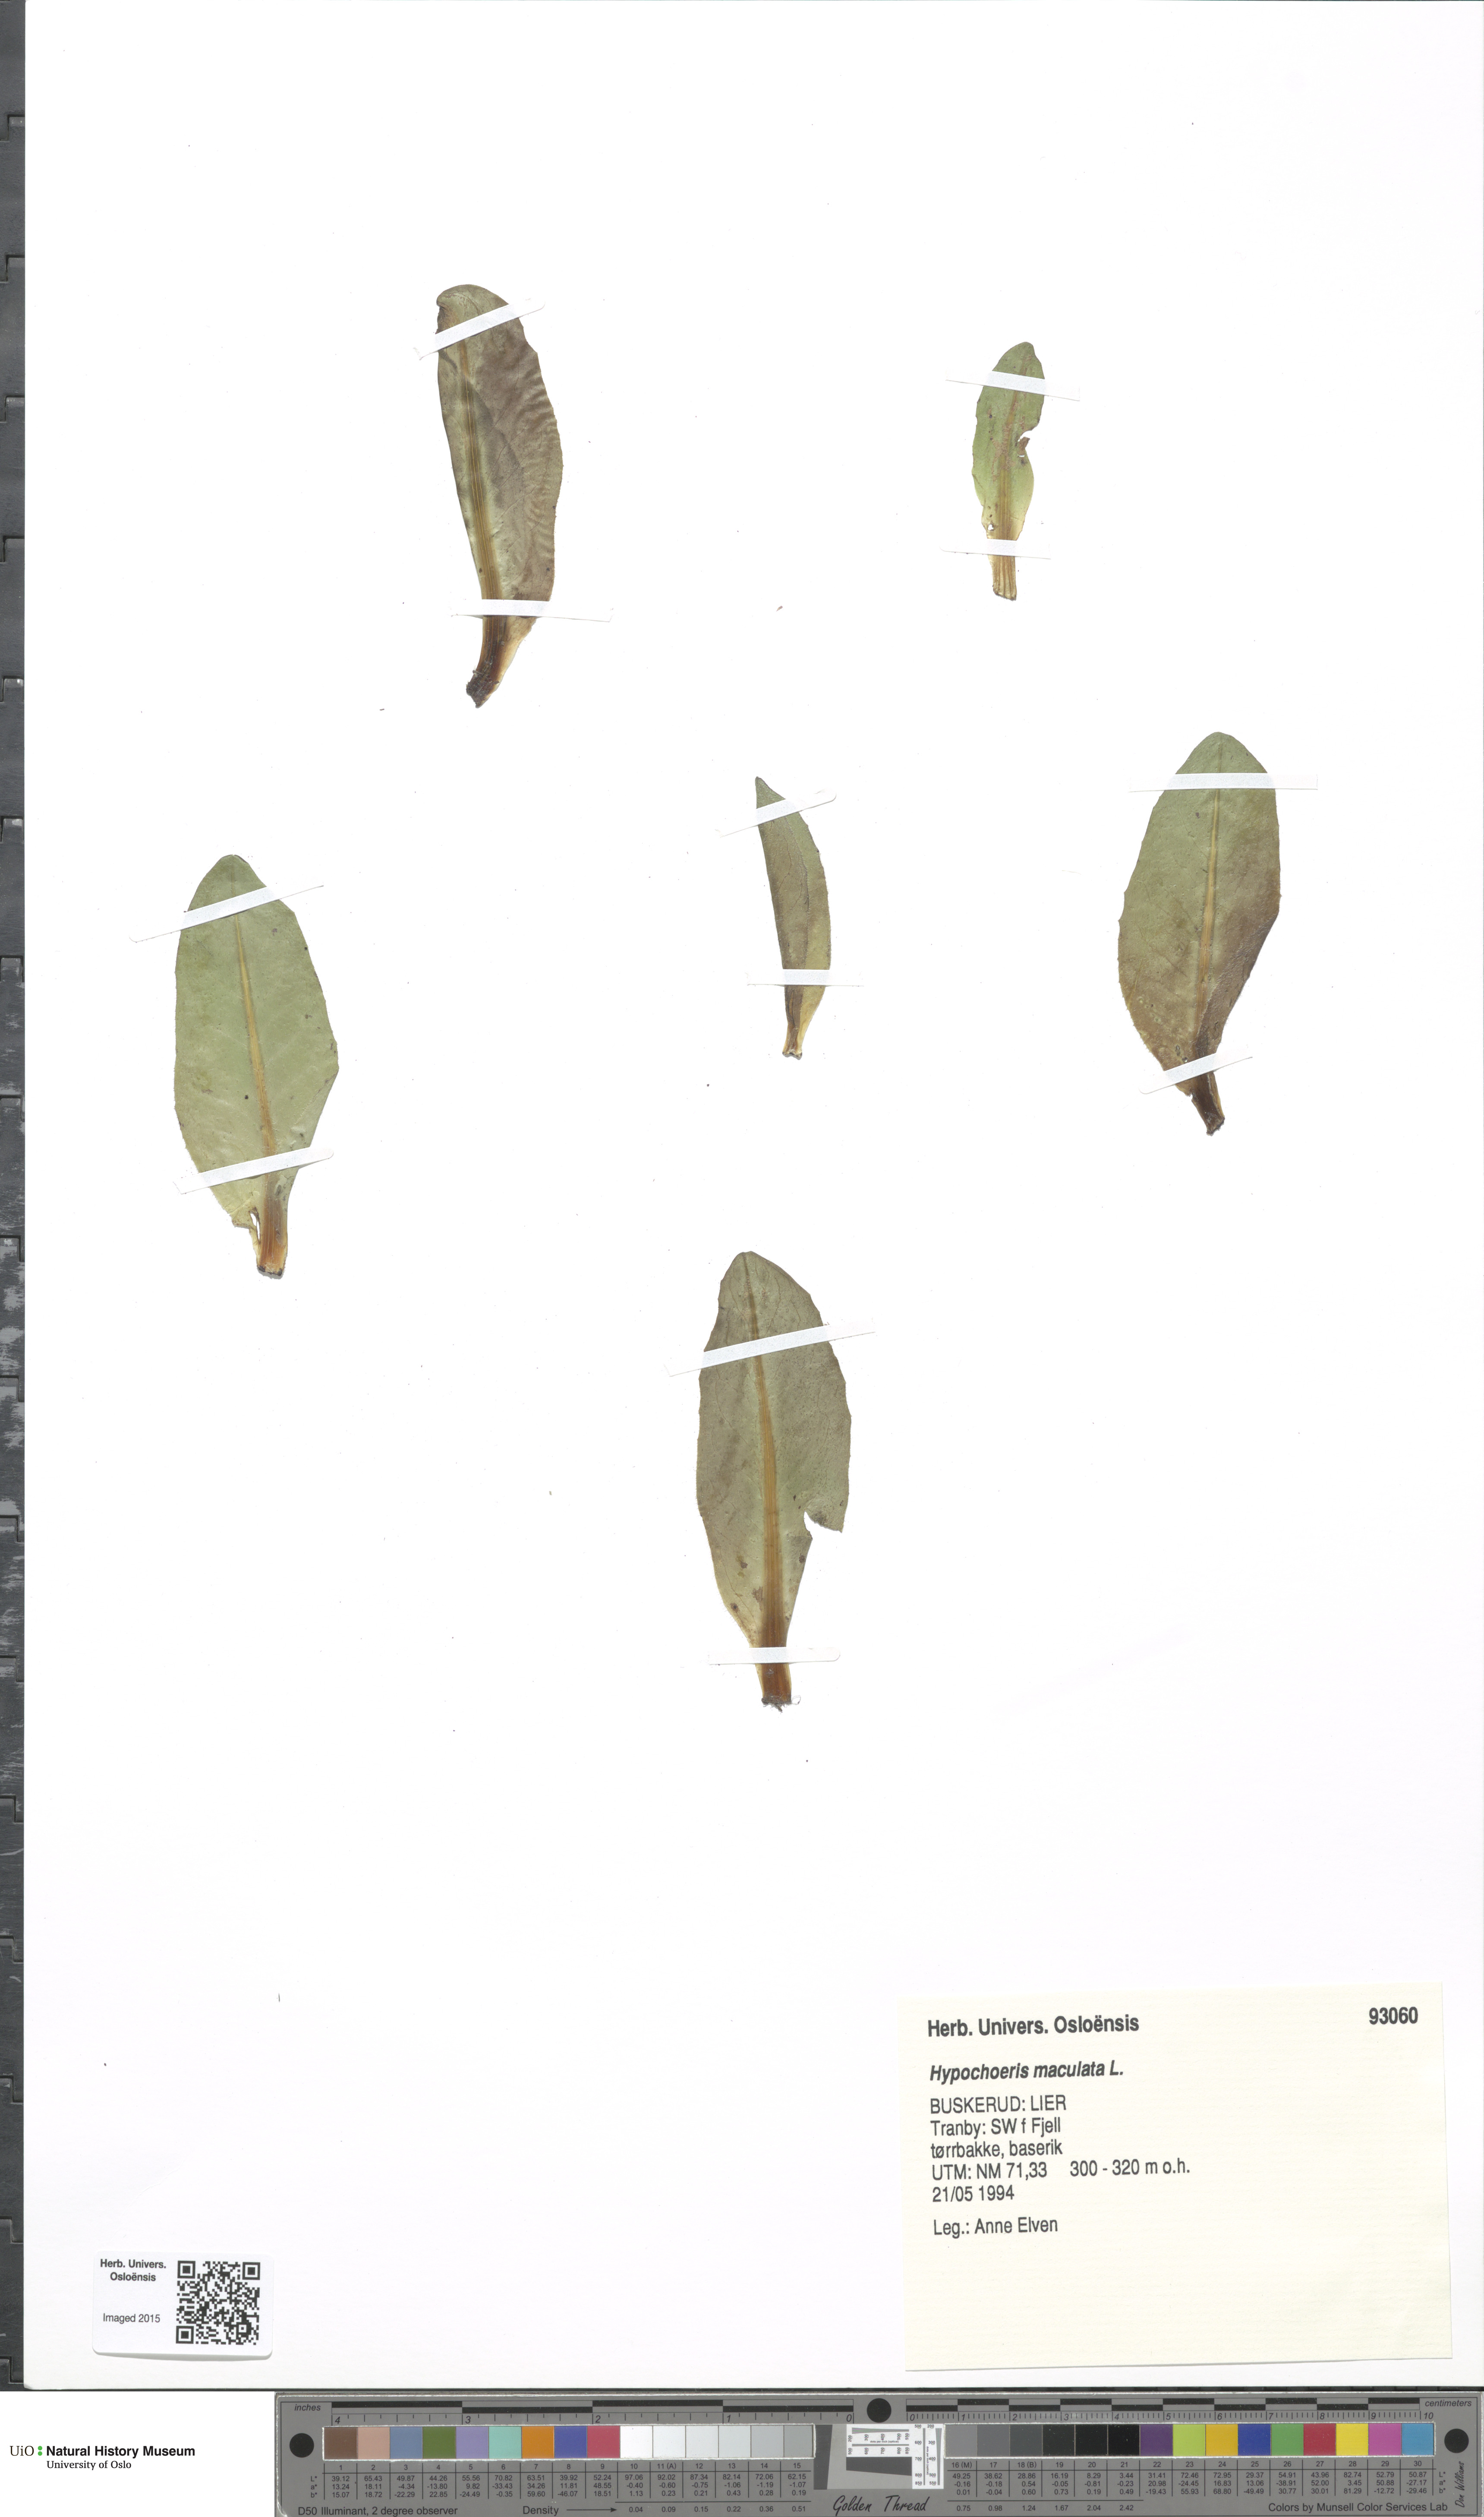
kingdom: Plantae
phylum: Tracheophyta
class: Magnoliopsida
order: Asterales
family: Asteraceae
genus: Trommsdorffia
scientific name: Trommsdorffia maculata
